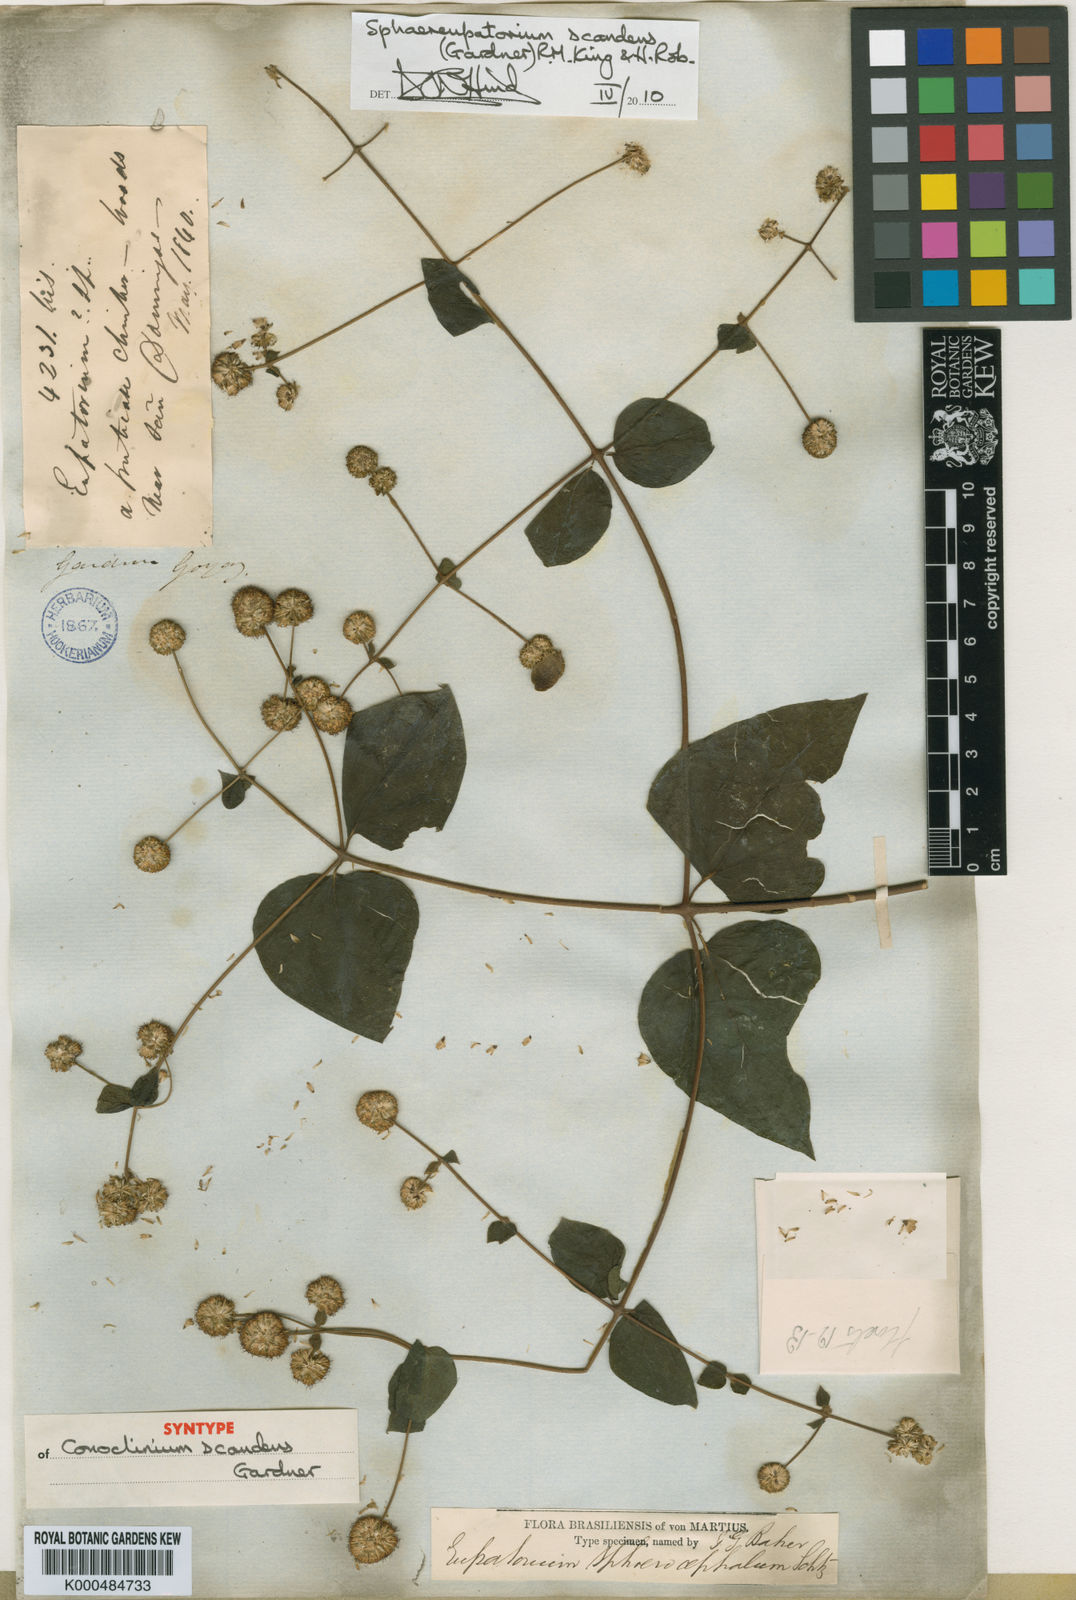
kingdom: Plantae
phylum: Tracheophyta
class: Magnoliopsida
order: Asterales
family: Asteraceae
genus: Sphaereupatorium
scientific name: Sphaereupatorium scandens
